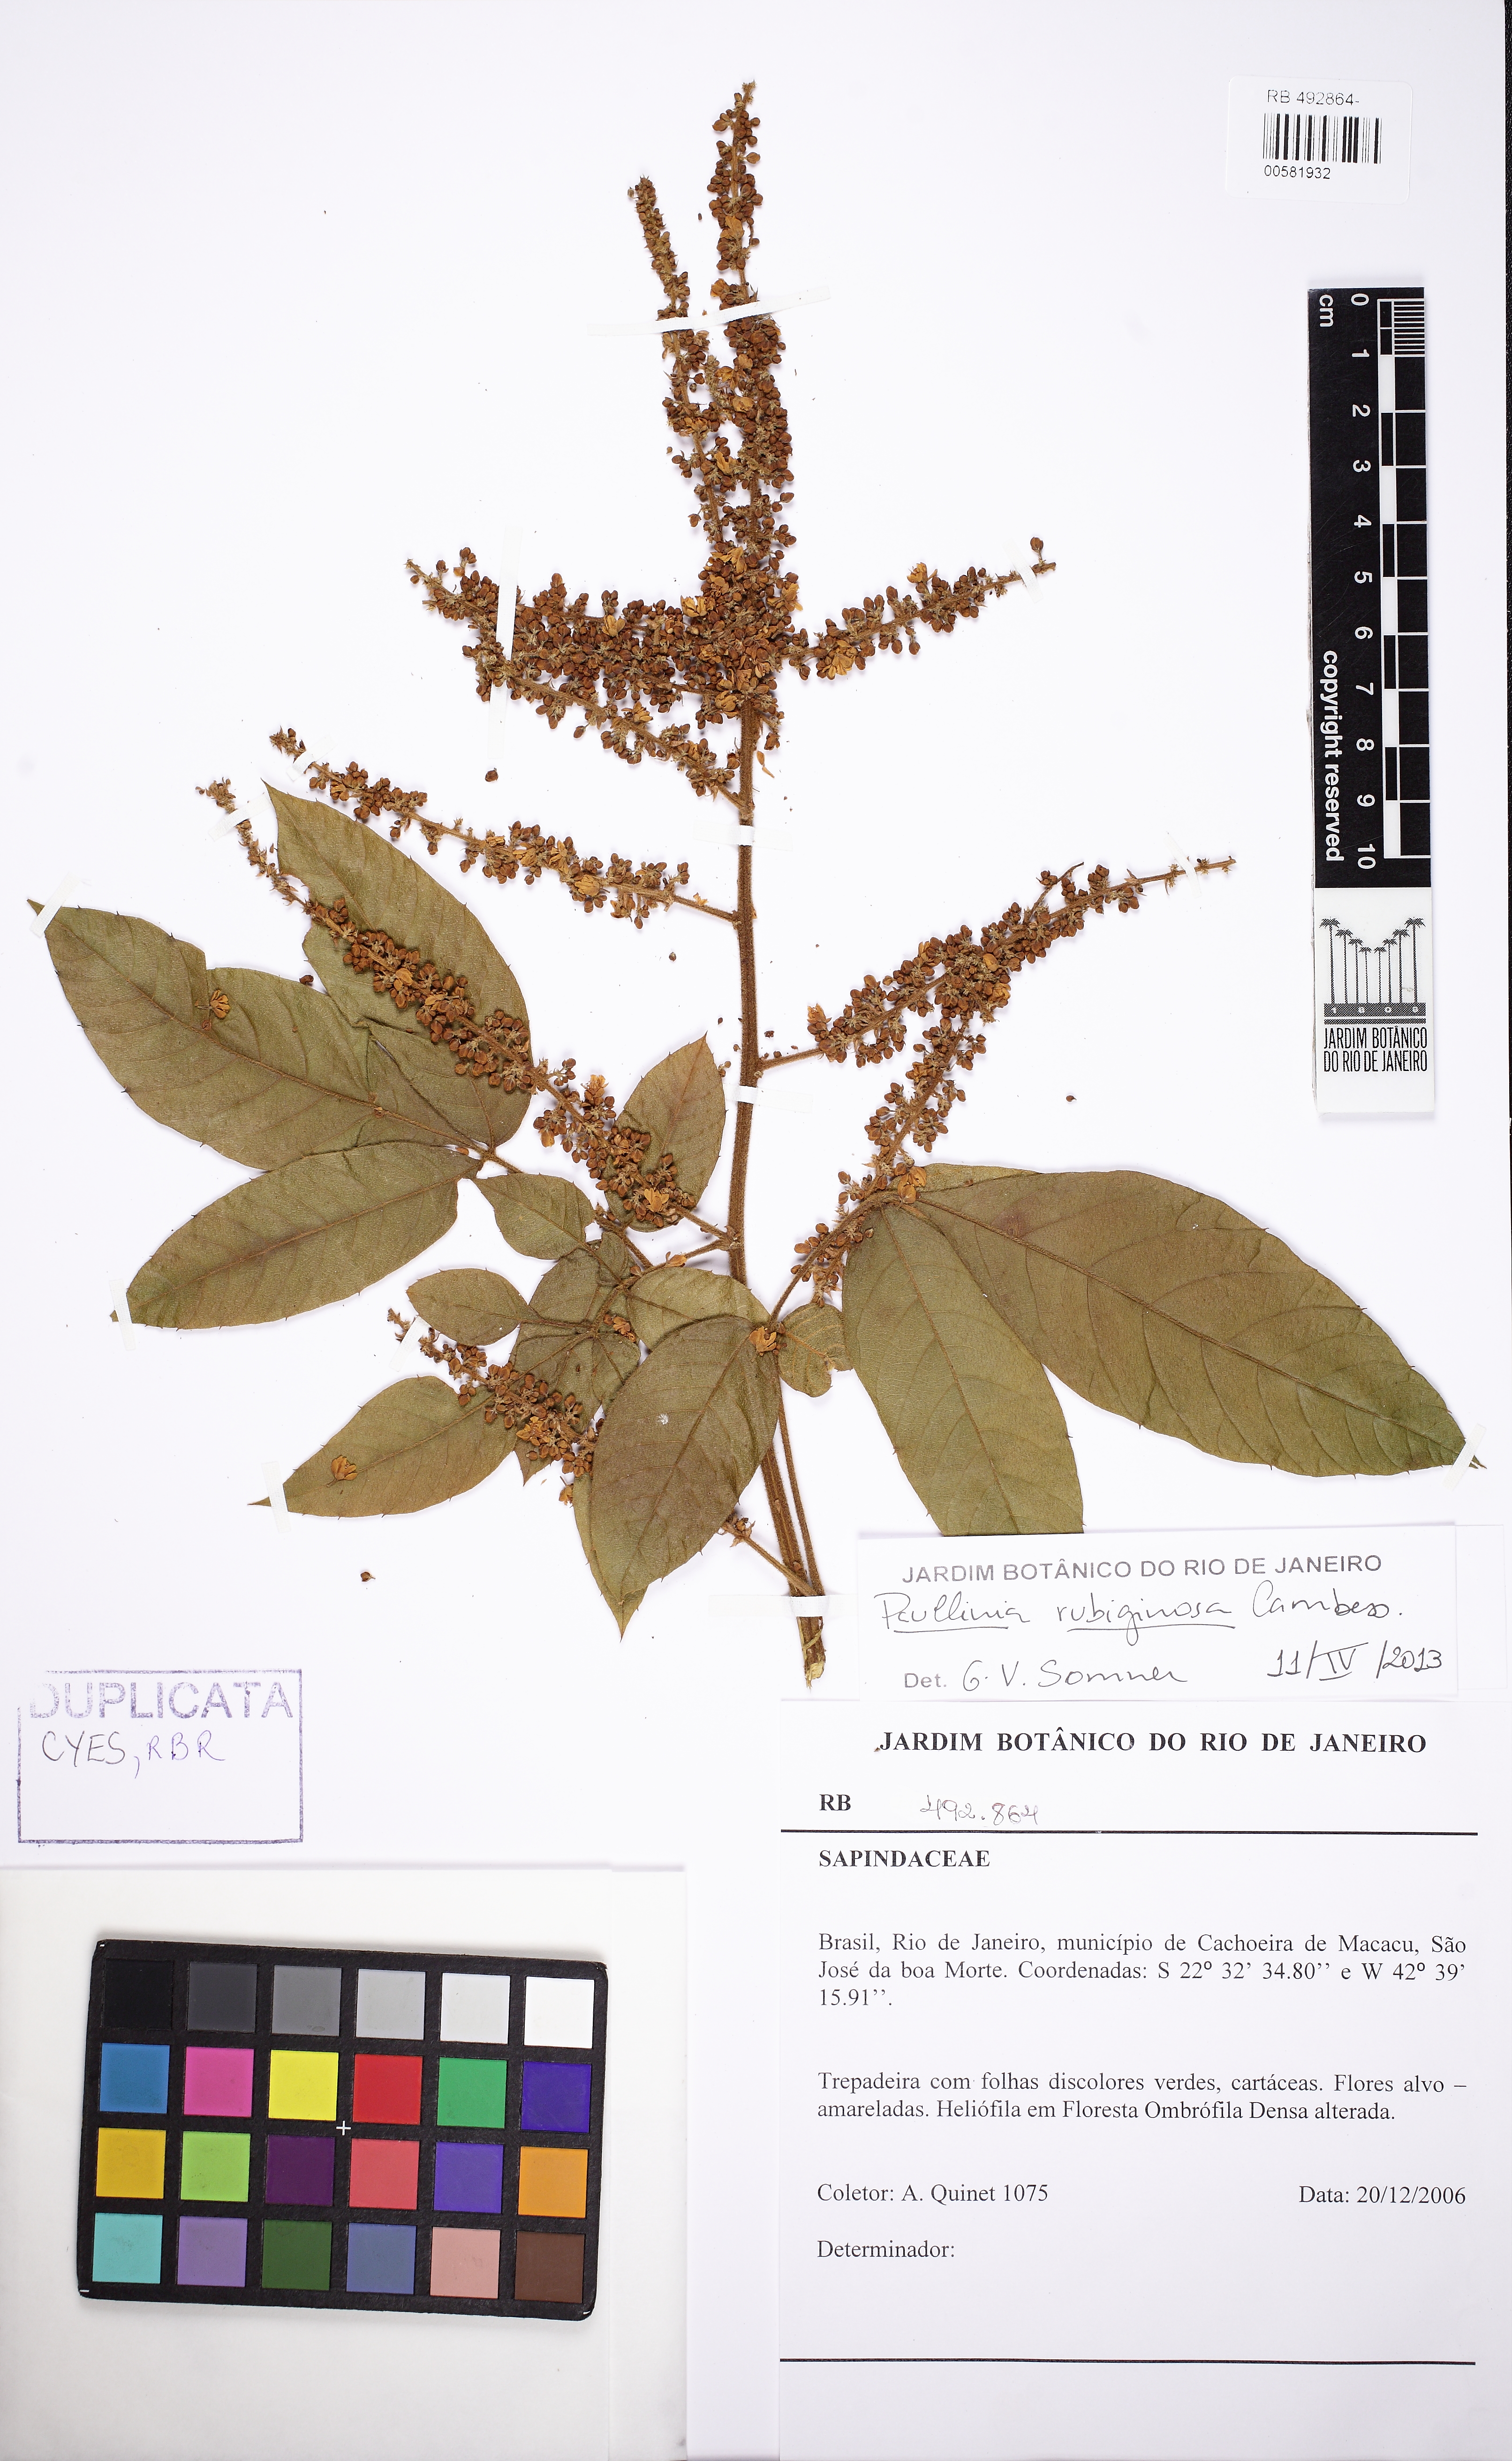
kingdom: Plantae
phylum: Tracheophyta
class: Magnoliopsida
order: Sapindales
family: Sapindaceae
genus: Paullinia
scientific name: Paullinia rubiginosa
